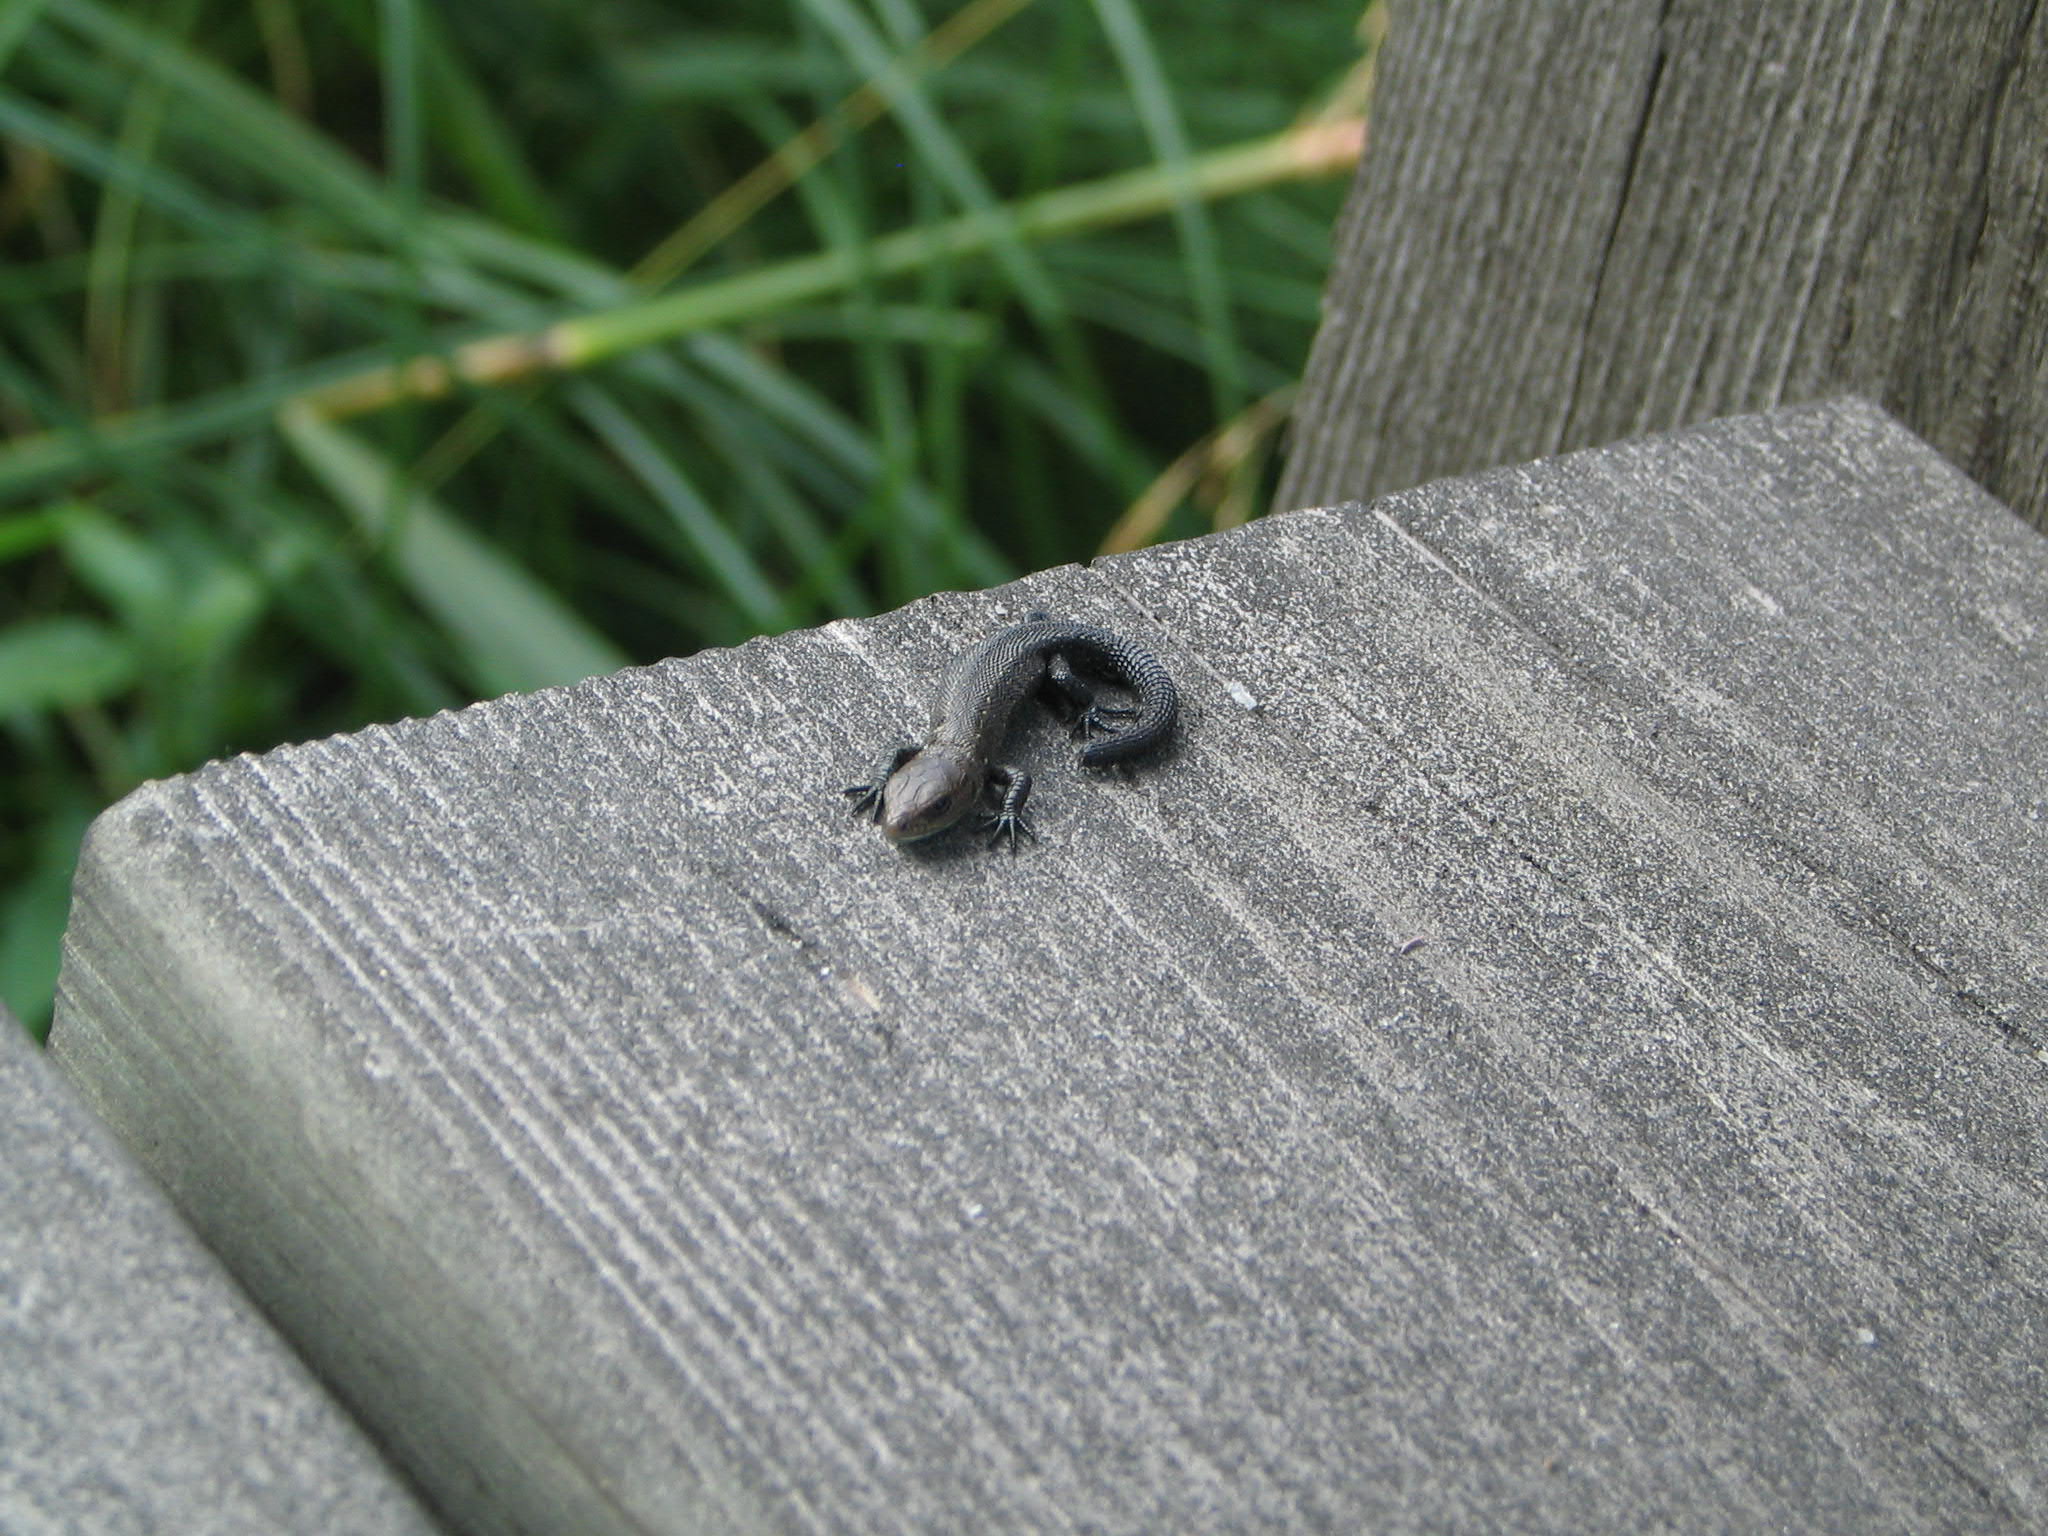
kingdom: Animalia
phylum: Chordata
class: Squamata
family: Lacertidae
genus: Zootoca
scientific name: Zootoca vivipara
